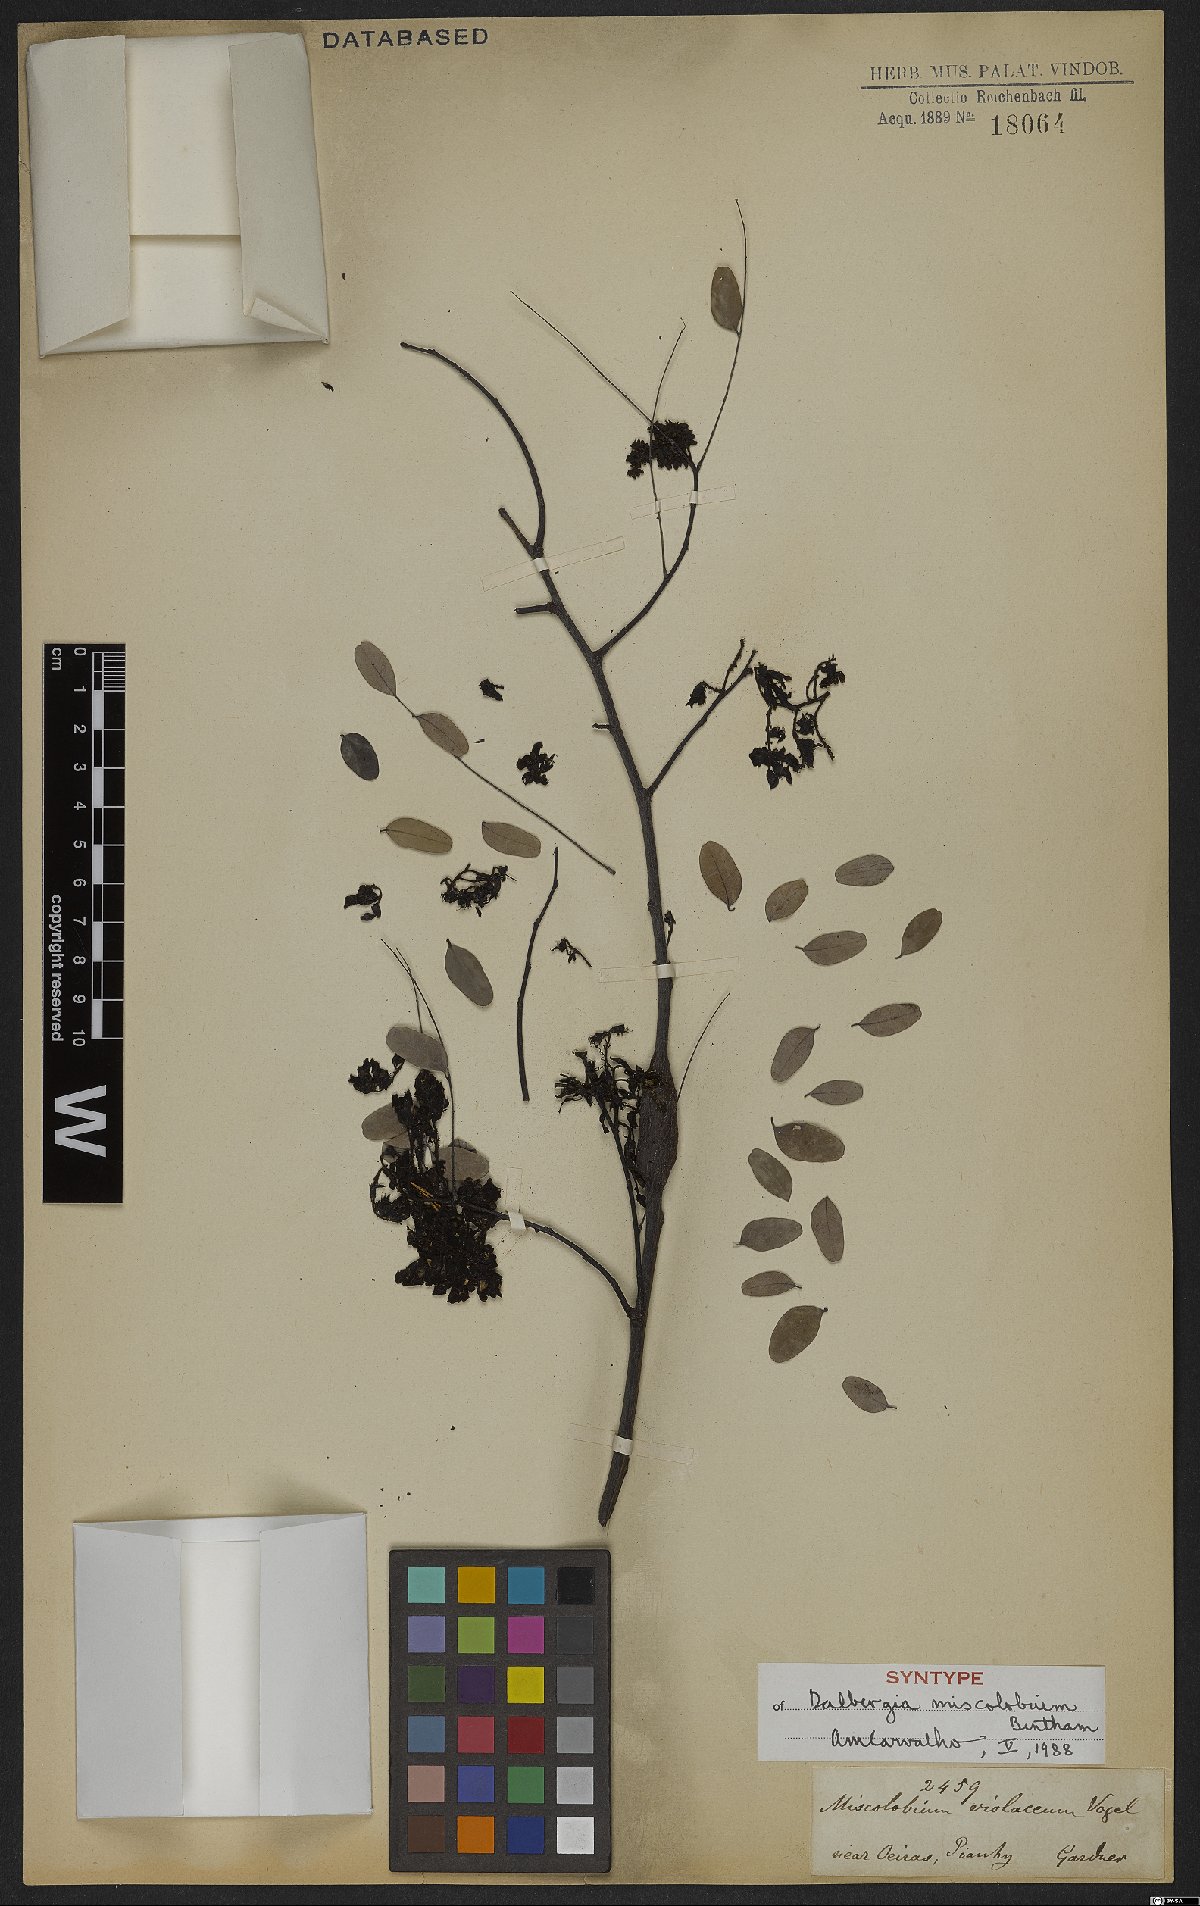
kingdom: Plantae
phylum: Tracheophyta
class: Magnoliopsida
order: Fabales
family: Fabaceae
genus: Dalbergia
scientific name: Dalbergia miscolobium
